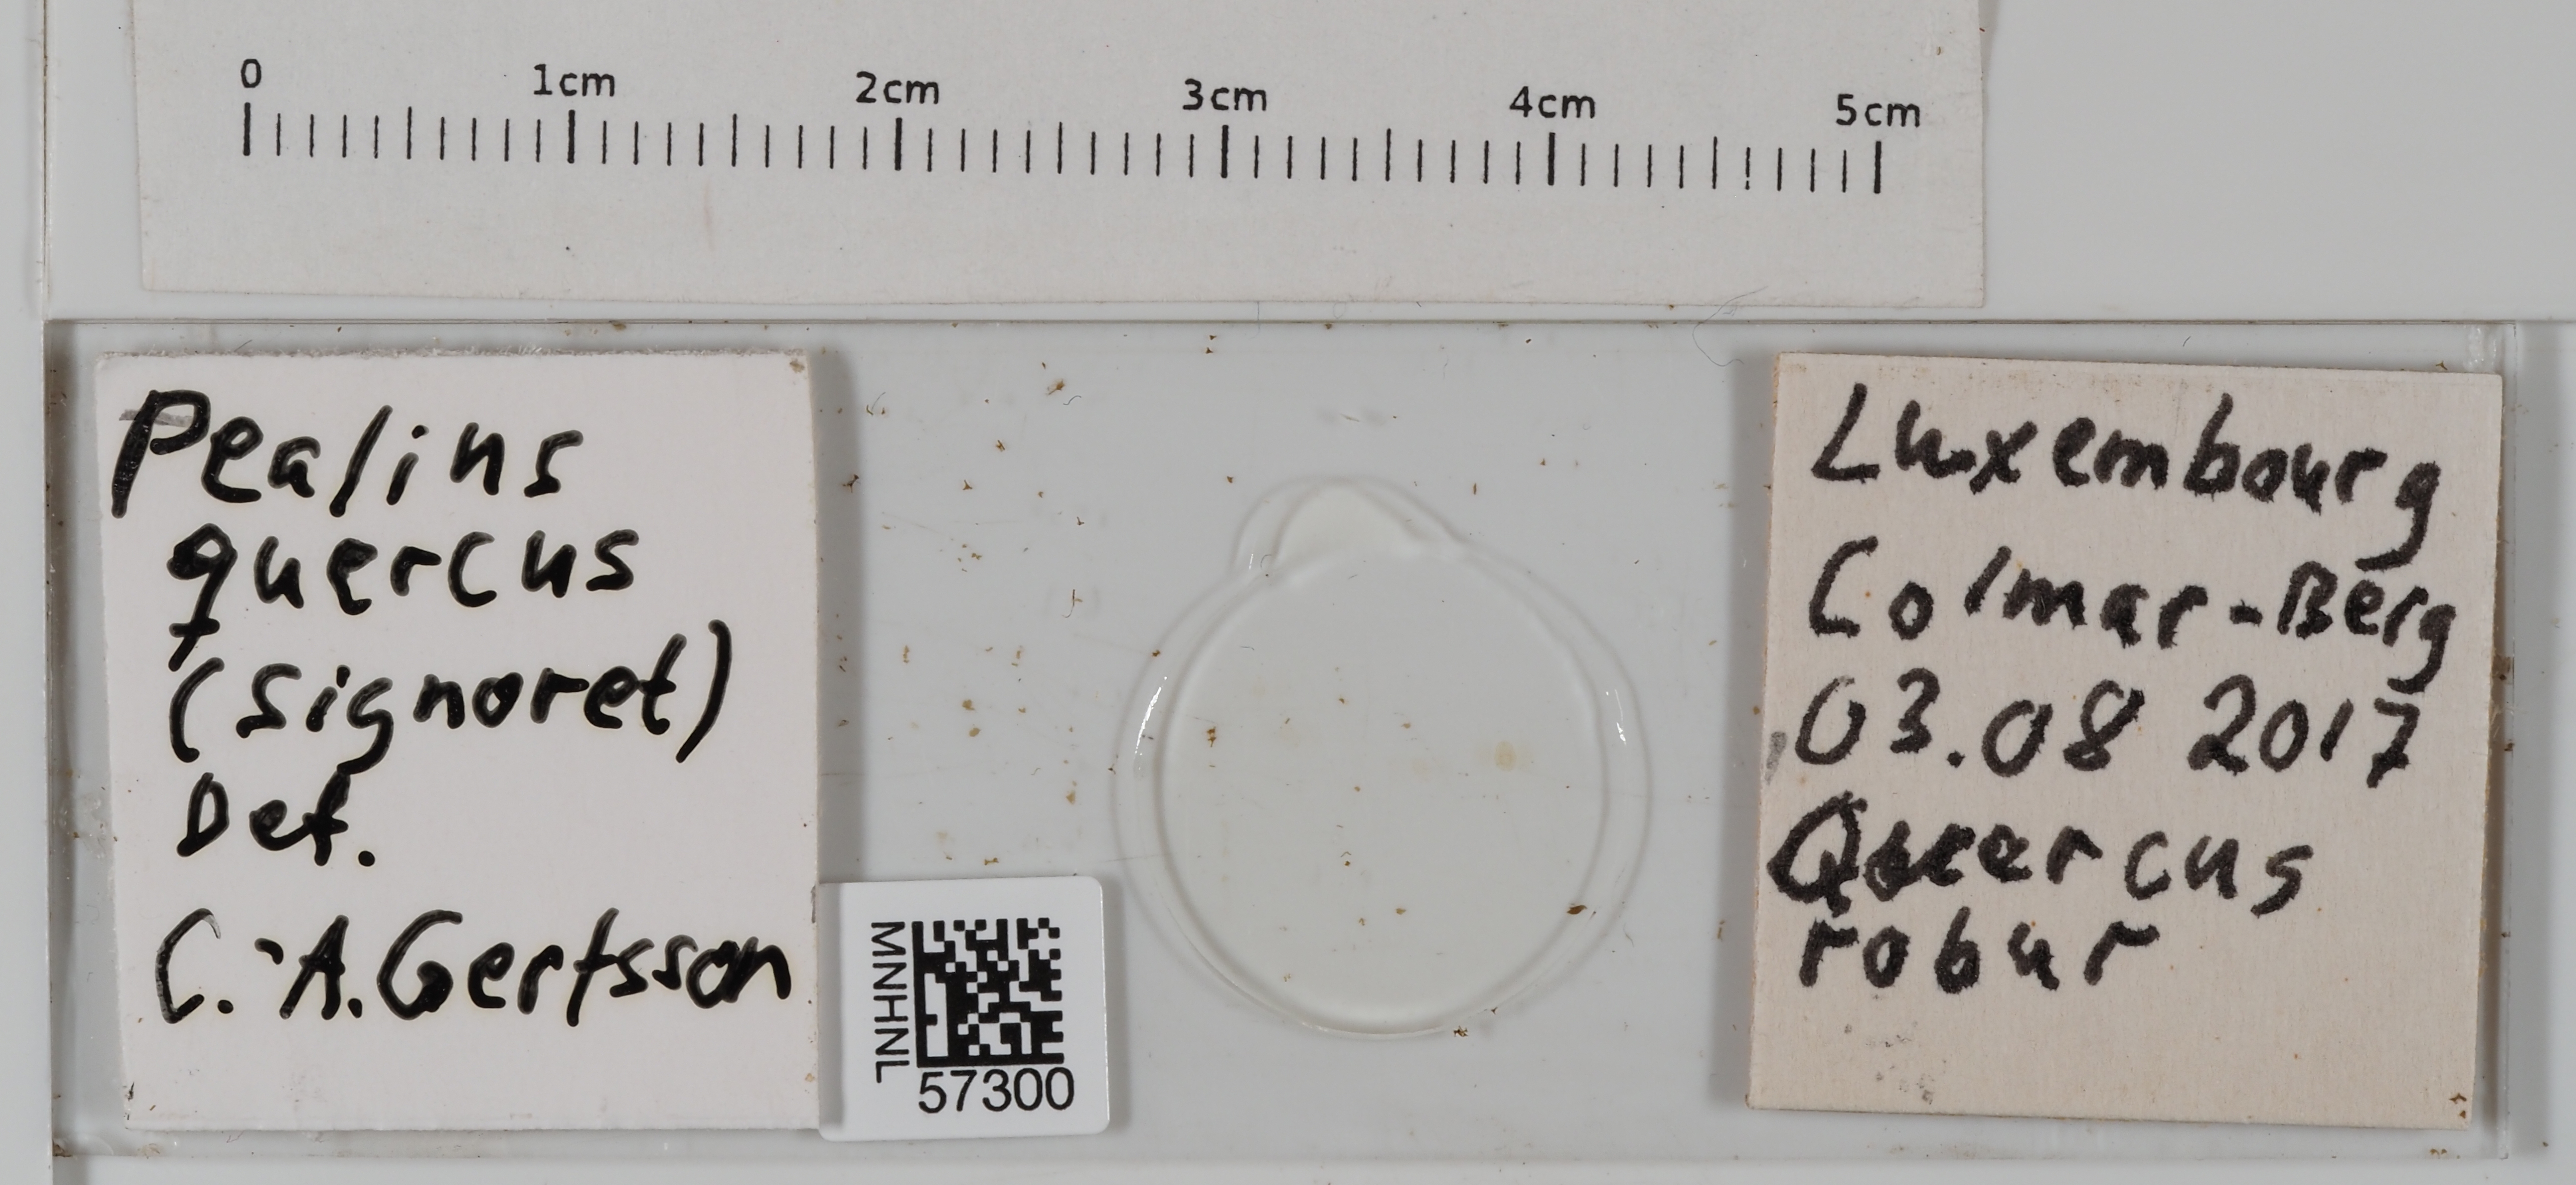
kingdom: Animalia
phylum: Arthropoda
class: Insecta
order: Hemiptera
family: Aleyrodidae
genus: Pealius
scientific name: Pealius quercus
